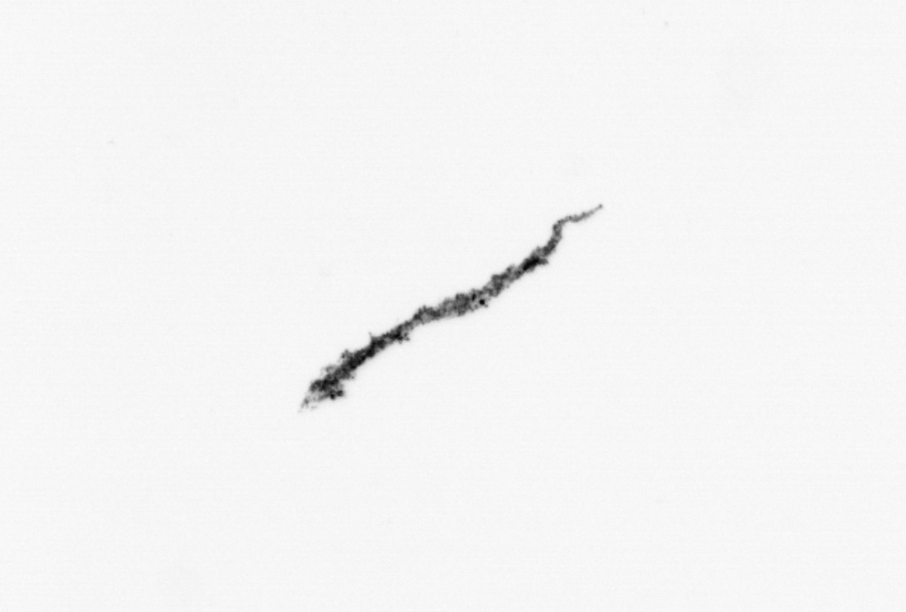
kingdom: Bacteria
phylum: Cyanobacteria
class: Cyanobacteriia
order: Cyanobacteriales
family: Microcoleaceae
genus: Trichodesmium
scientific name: Trichodesmium
